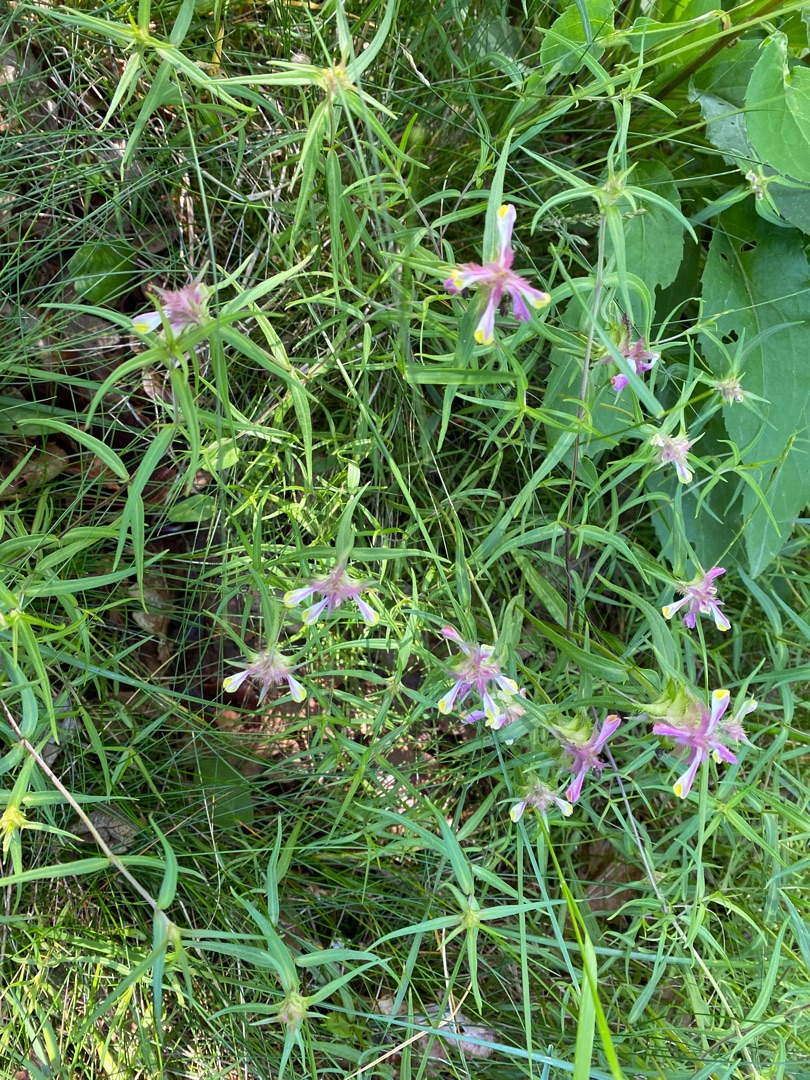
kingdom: Plantae
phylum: Tracheophyta
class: Magnoliopsida
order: Lamiales
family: Orobanchaceae
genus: Melampyrum
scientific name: Melampyrum cristatum
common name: Kantet kohvede
